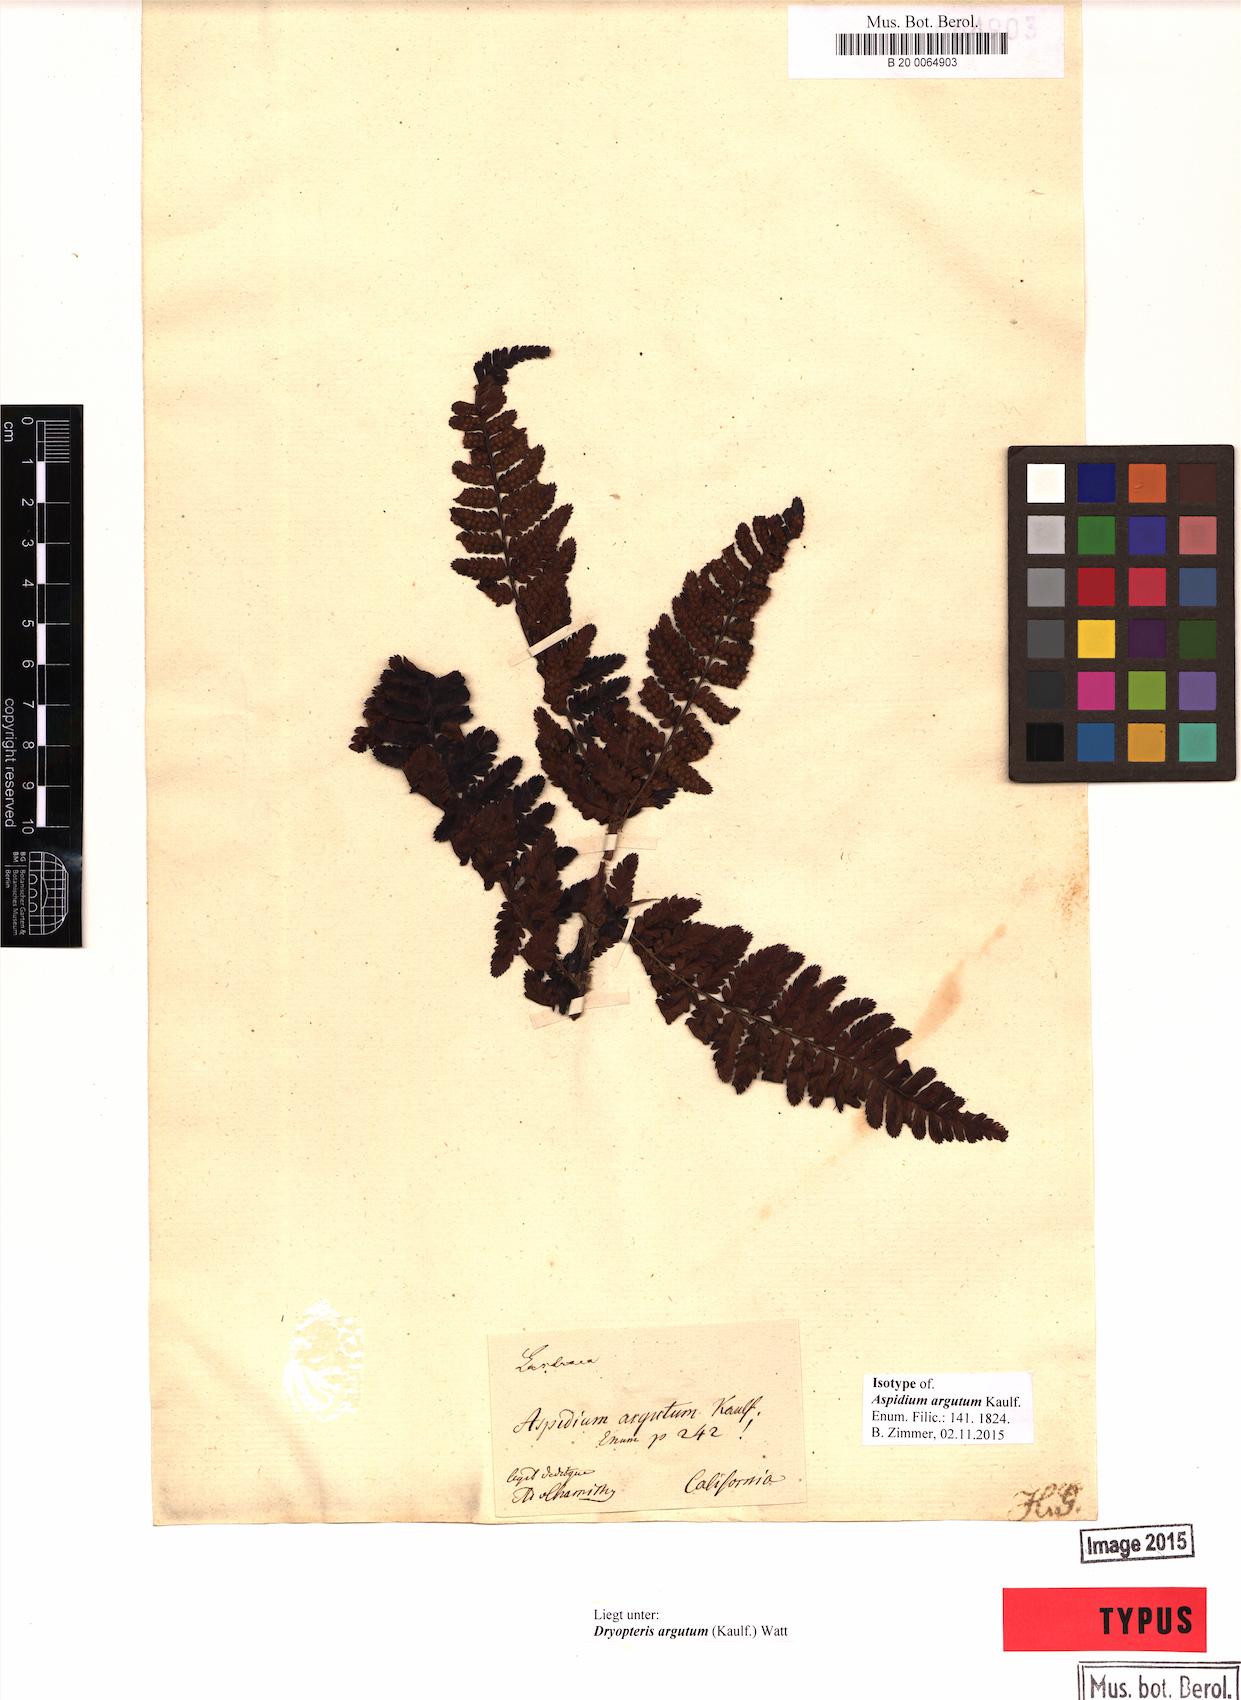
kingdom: Plantae
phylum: Tracheophyta
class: Polypodiopsida
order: Polypodiales
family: Dryopteridaceae
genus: Dryopteris
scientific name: Dryopteris arguta
